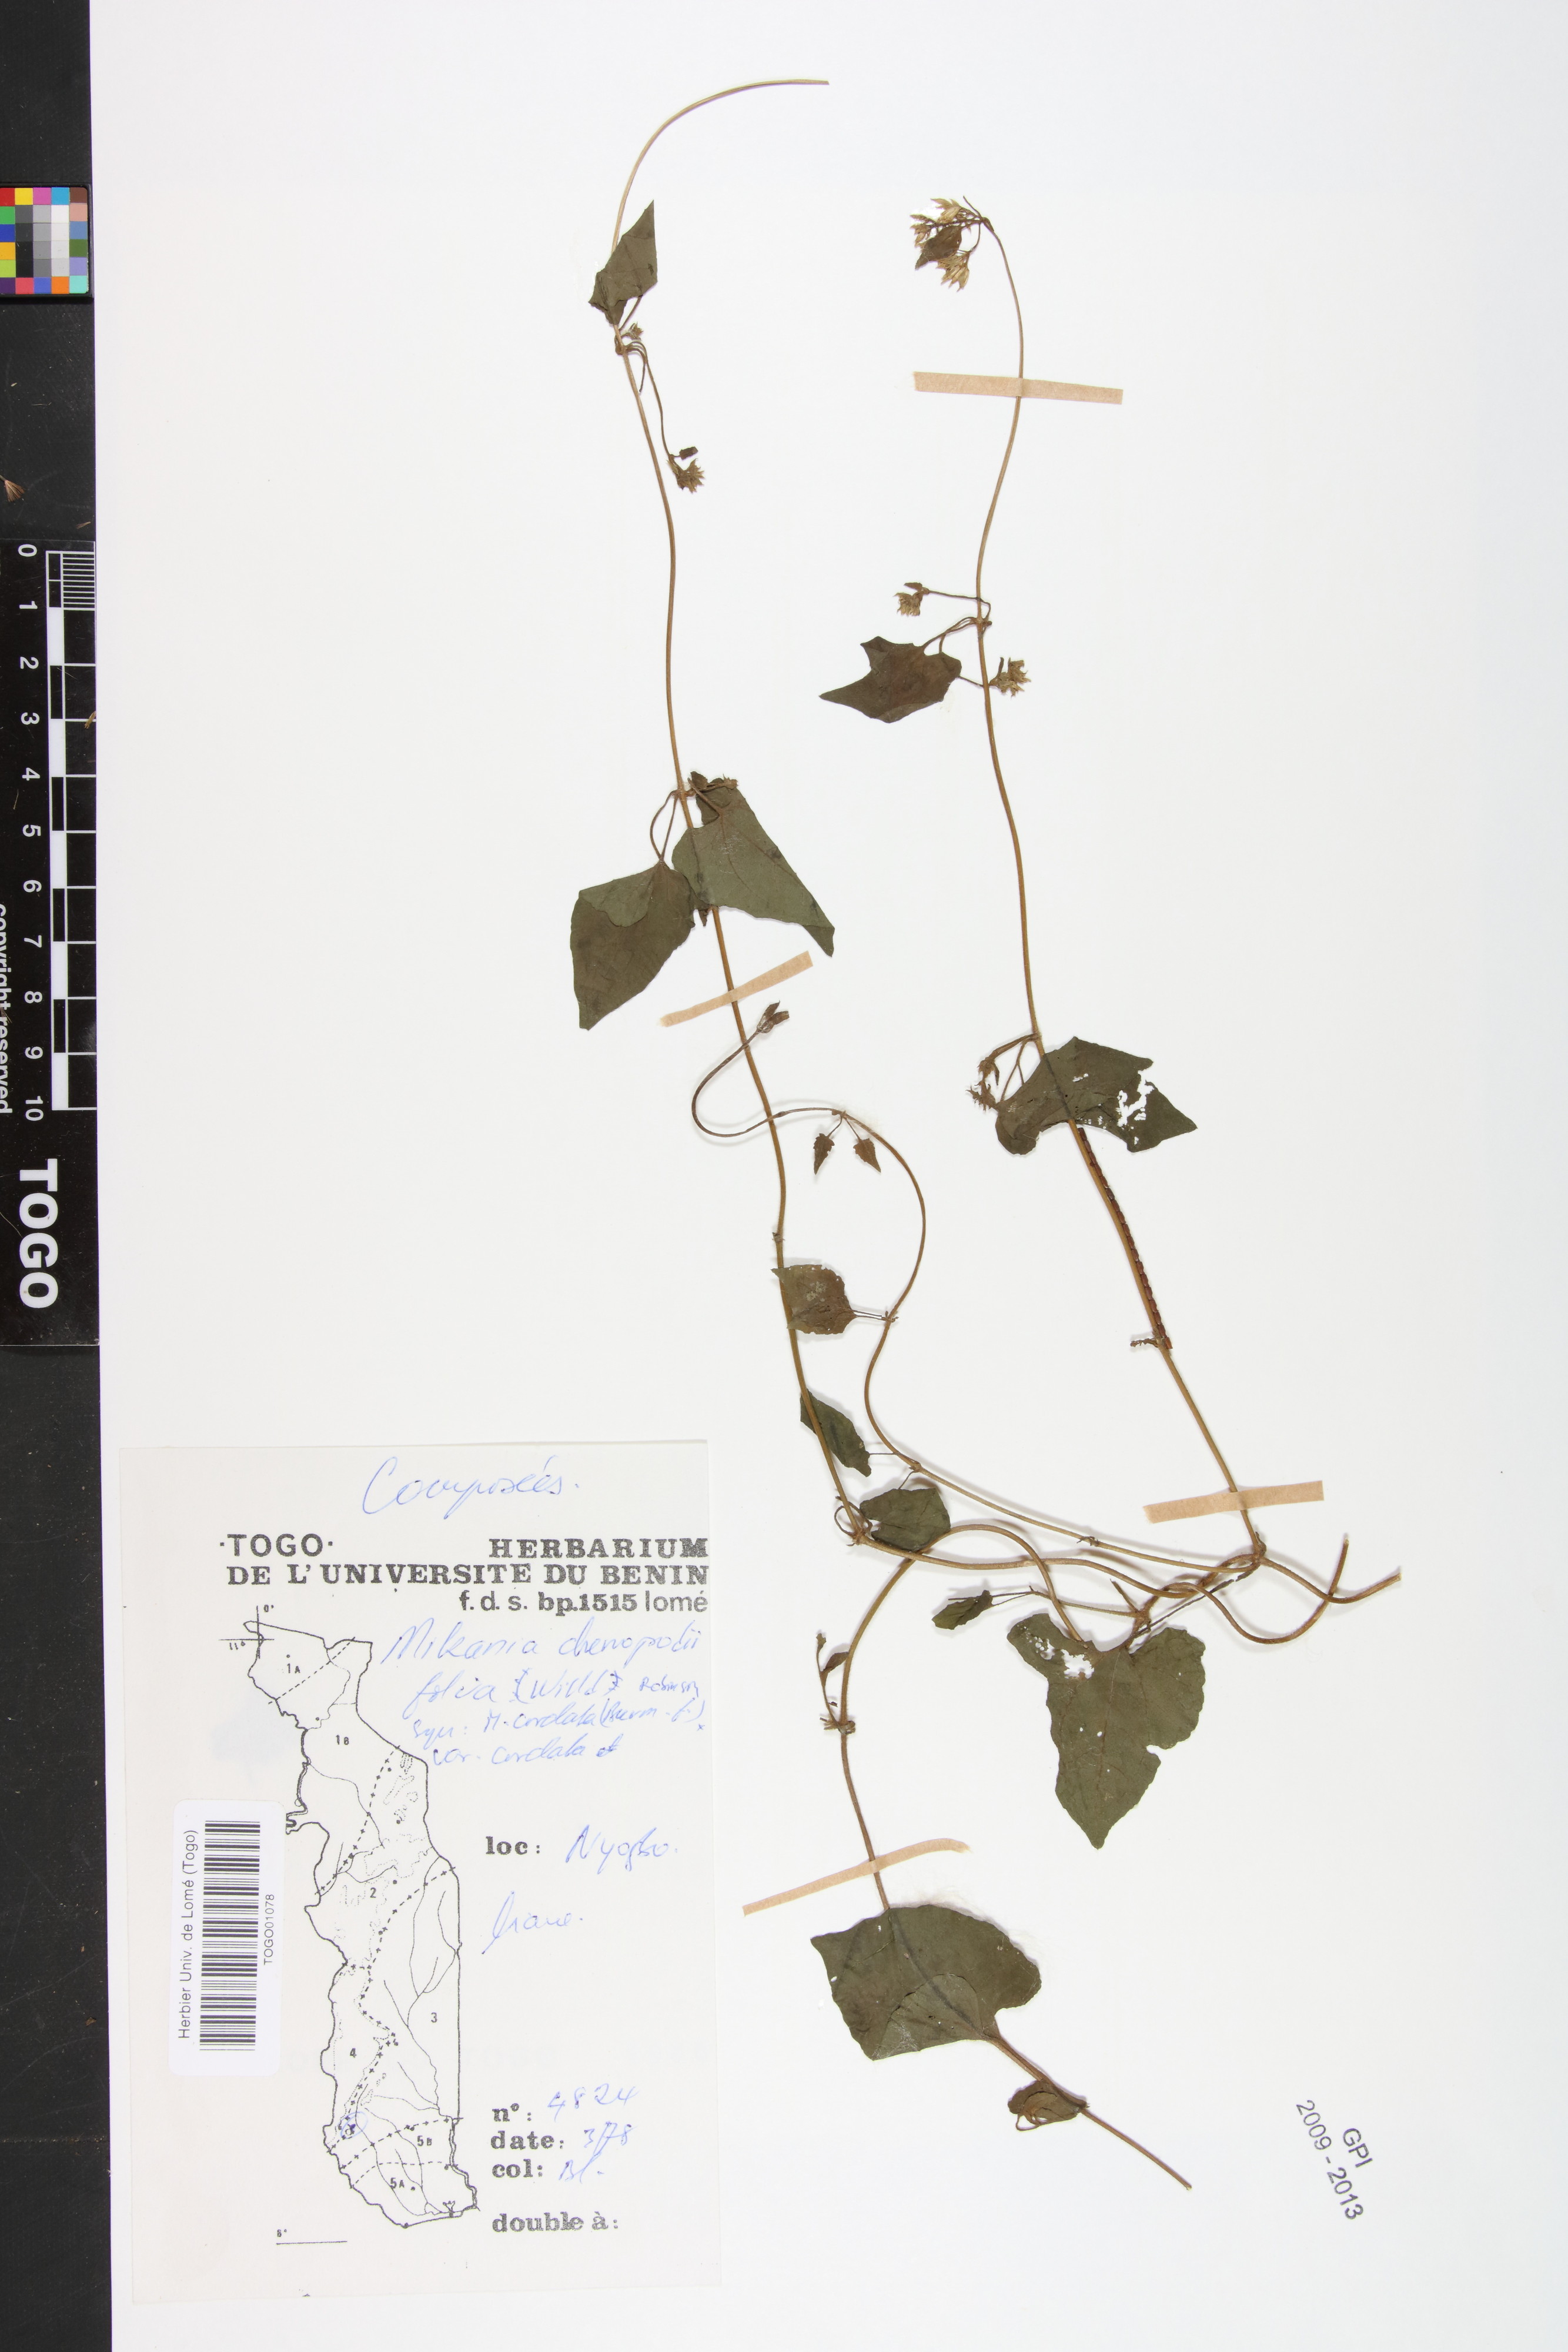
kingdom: Plantae
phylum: Tracheophyta
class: Magnoliopsida
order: Asterales
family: Asteraceae
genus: Mikania
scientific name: Mikania chenopodifolia
